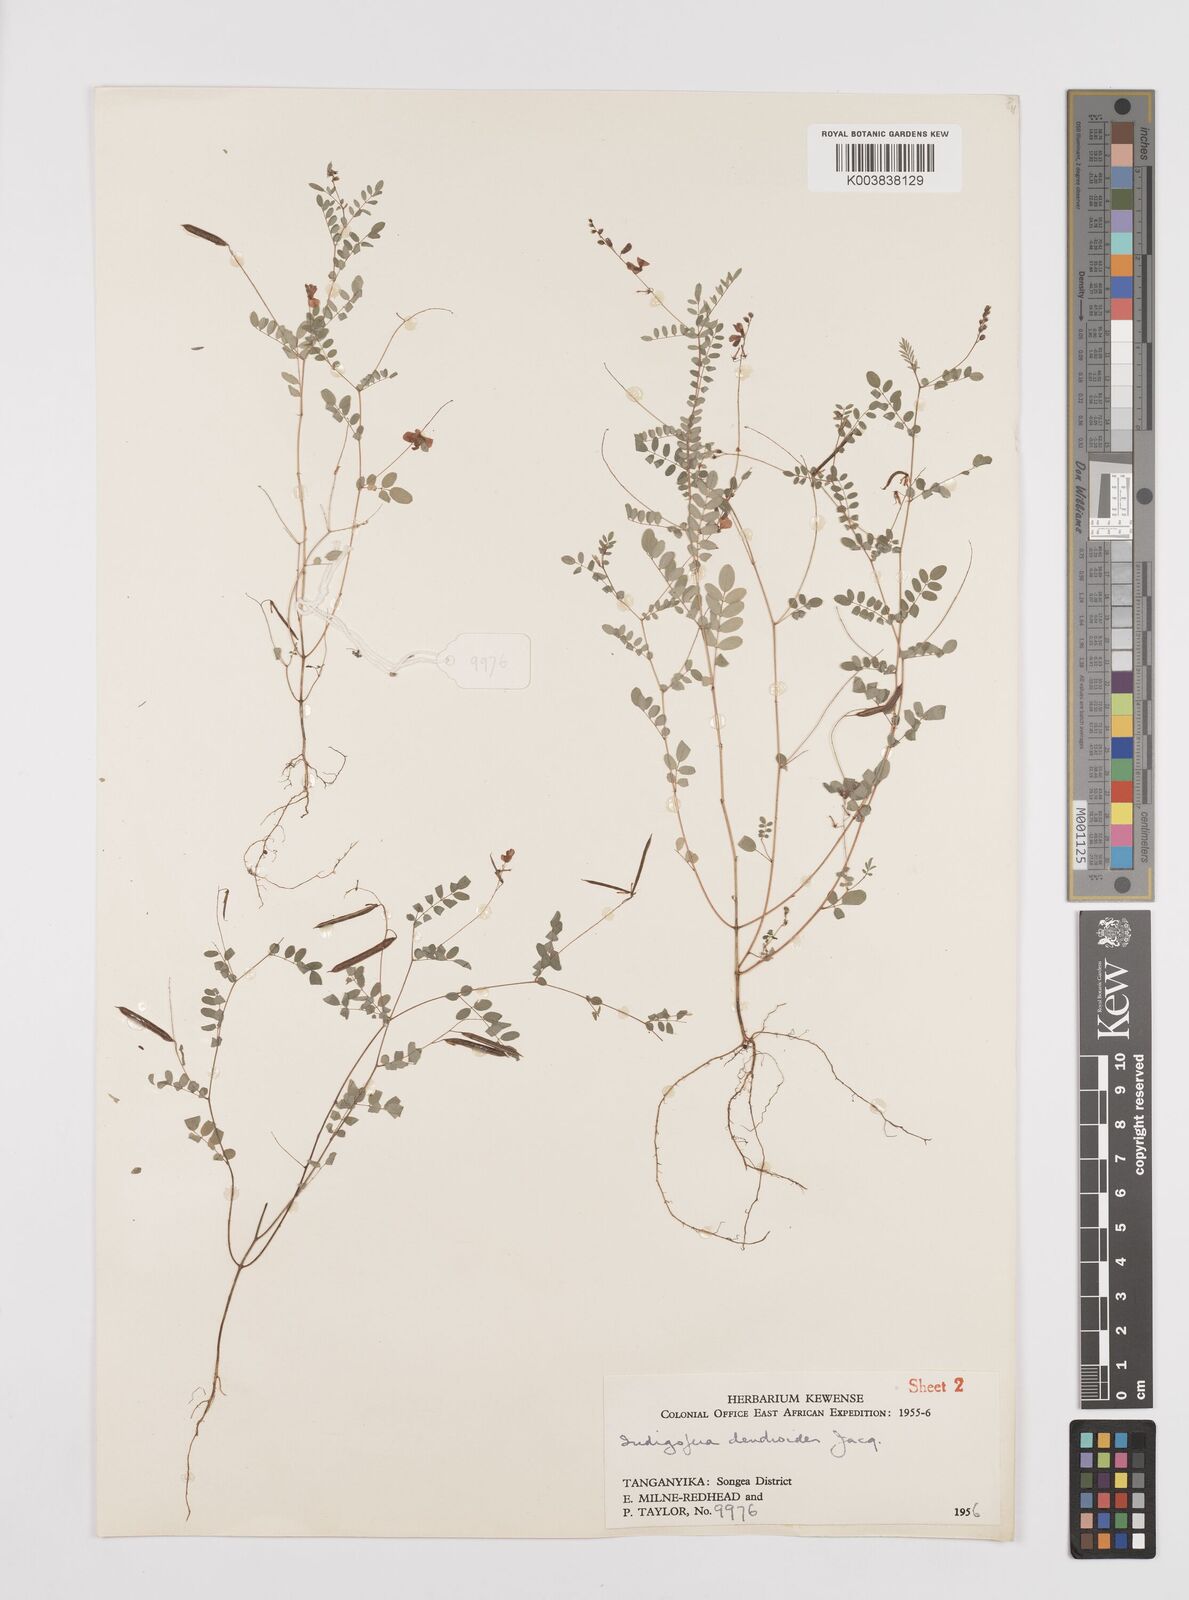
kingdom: Plantae
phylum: Tracheophyta
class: Magnoliopsida
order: Fabales
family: Fabaceae
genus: Indigofera
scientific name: Indigofera dendroides
